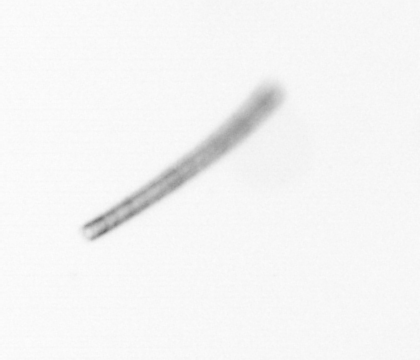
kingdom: Chromista
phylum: Ochrophyta
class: Bacillariophyceae
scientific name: Bacillariophyceae
